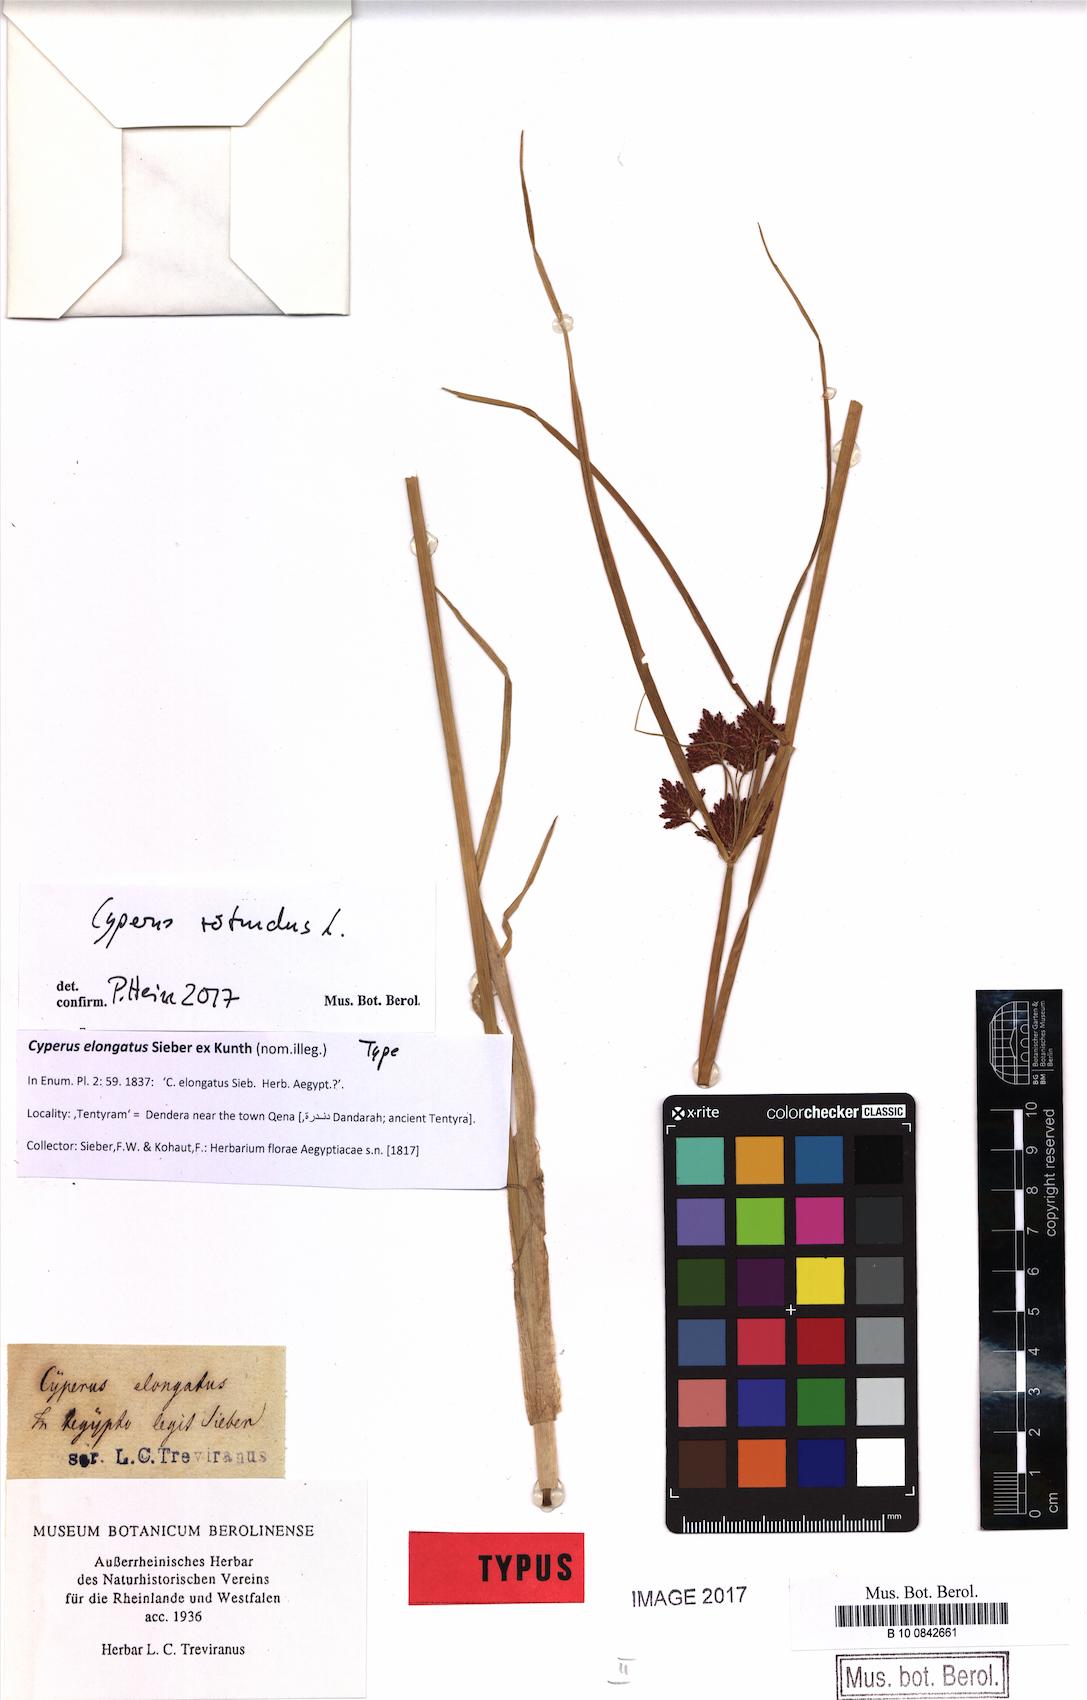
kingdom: Plantae
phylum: Tracheophyta
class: Liliopsida
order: Poales
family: Cyperaceae
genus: Cyperus
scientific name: Cyperus rotundus
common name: Nutgrass
